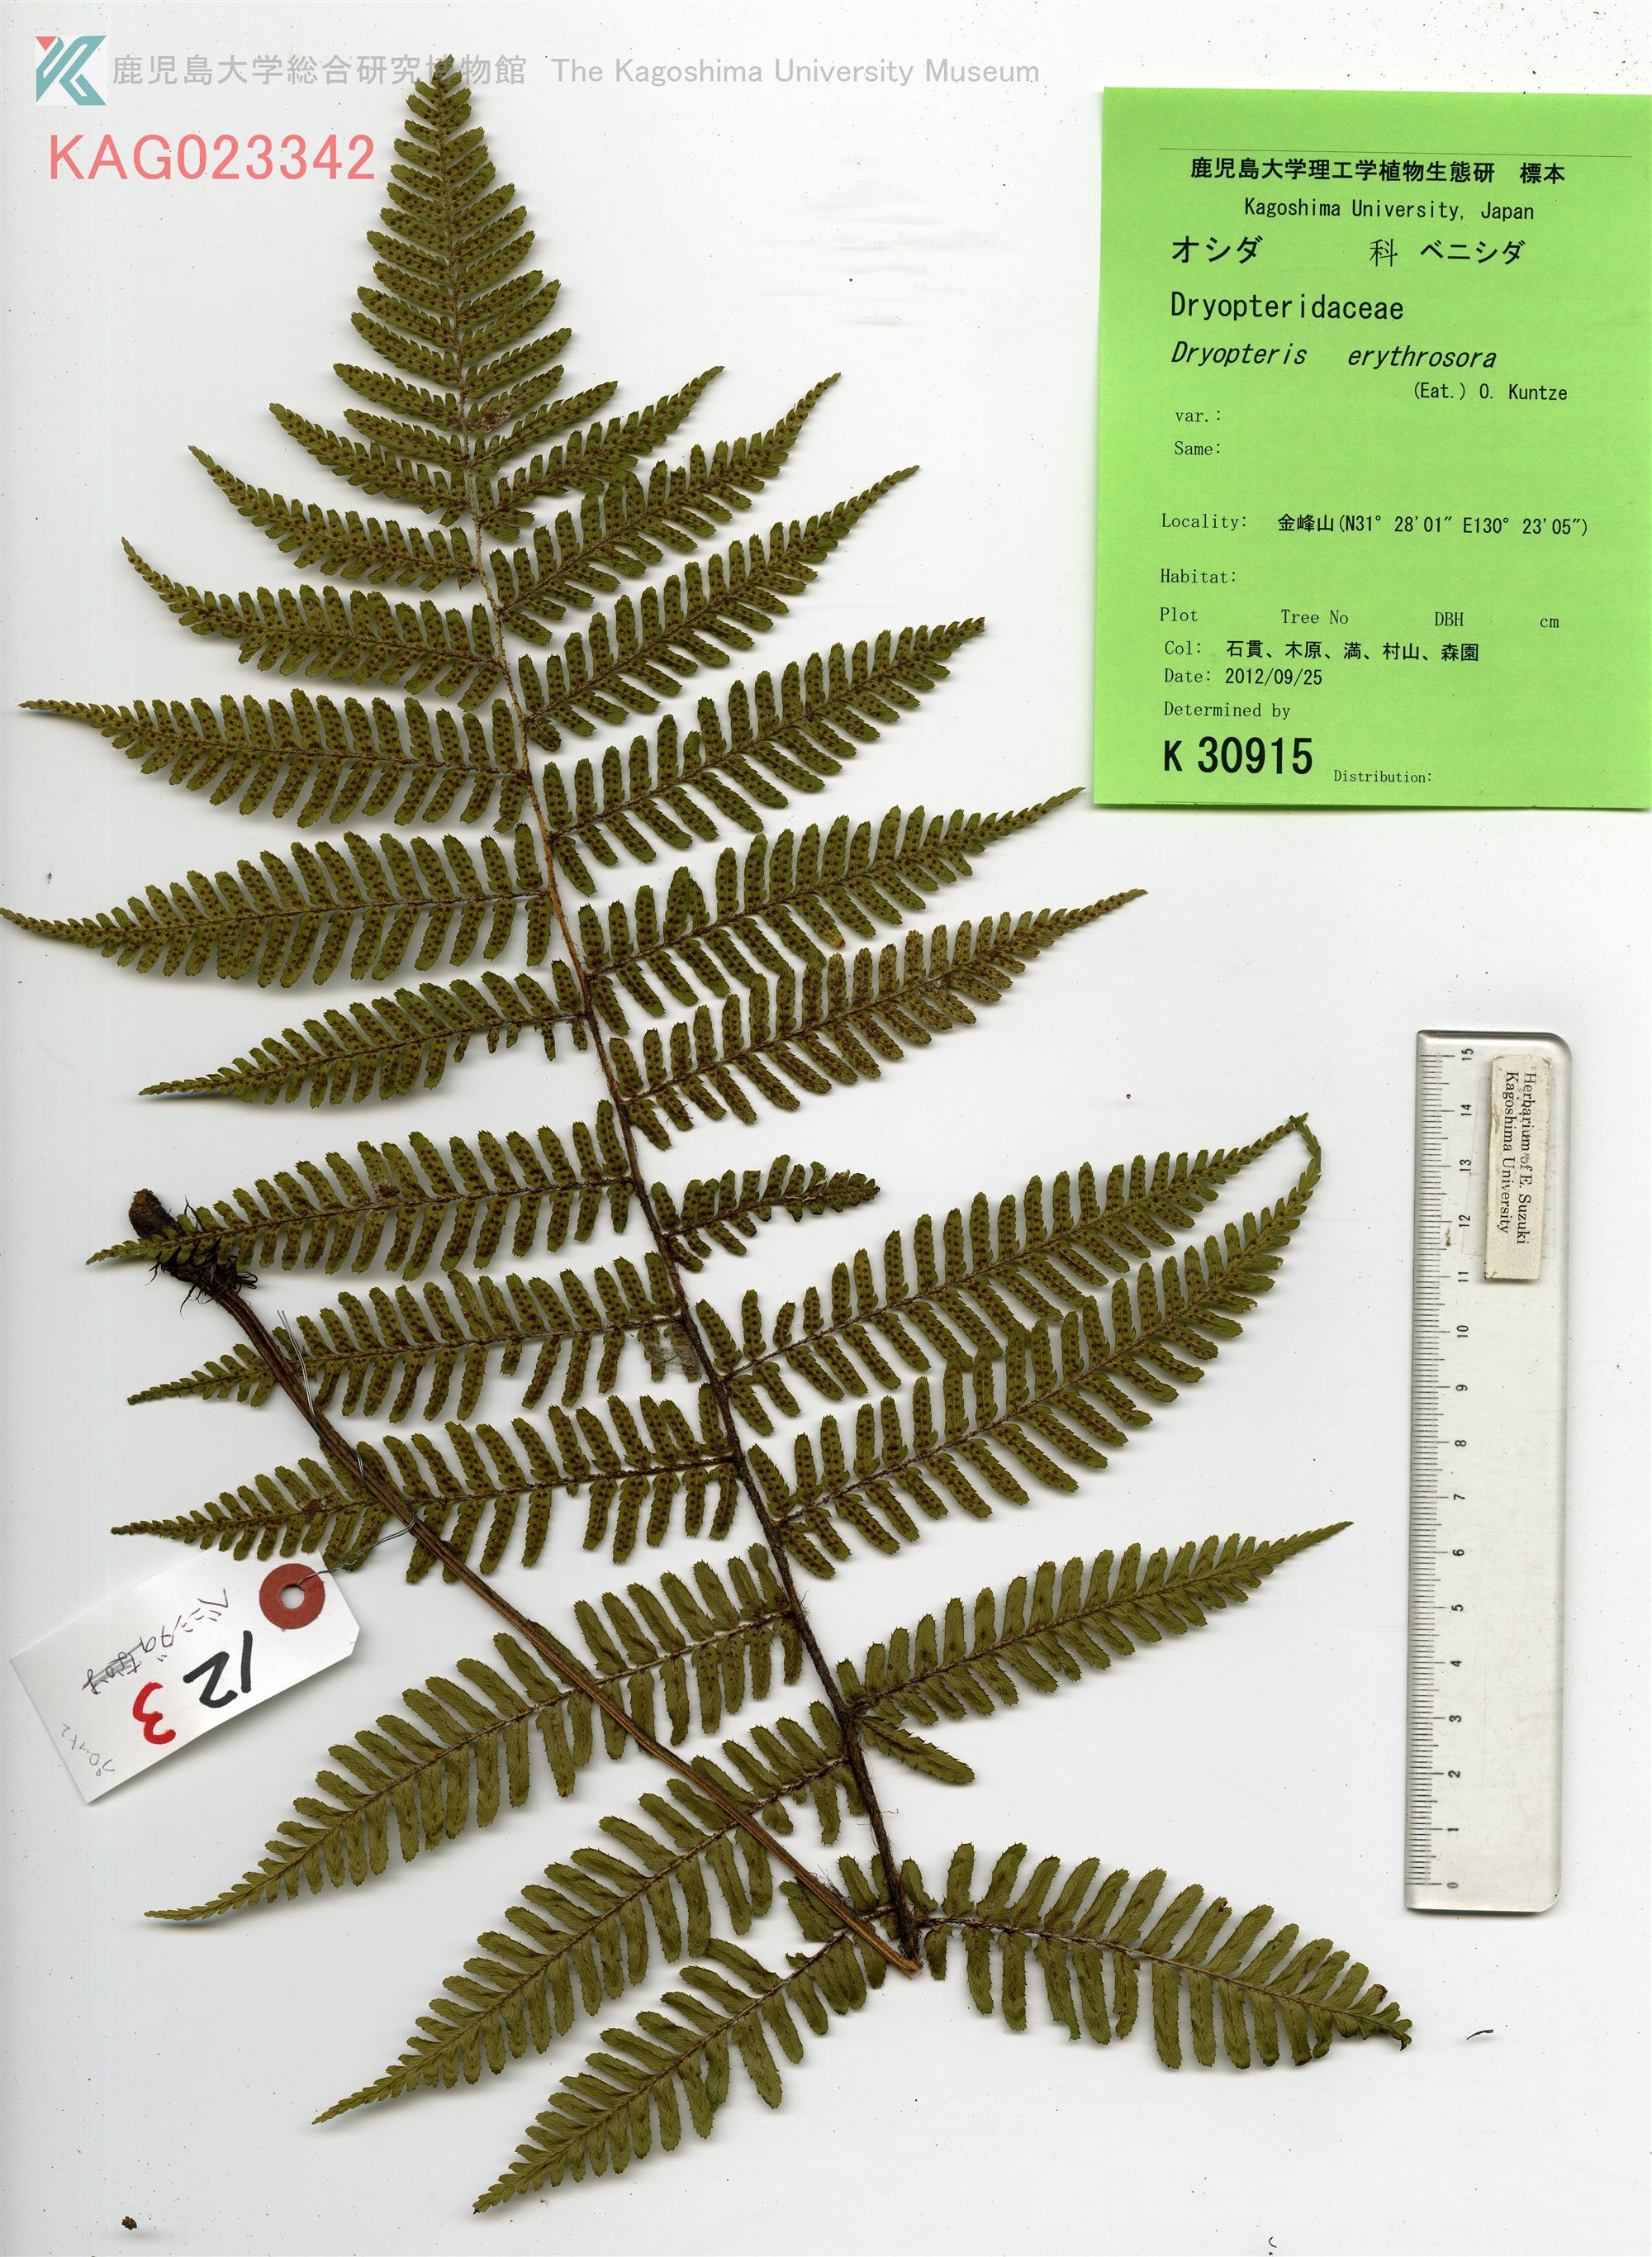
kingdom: Plantae
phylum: Tracheophyta
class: Polypodiopsida
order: Polypodiales
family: Dryopteridaceae
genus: Dryopteris
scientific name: Dryopteris erythrosora
